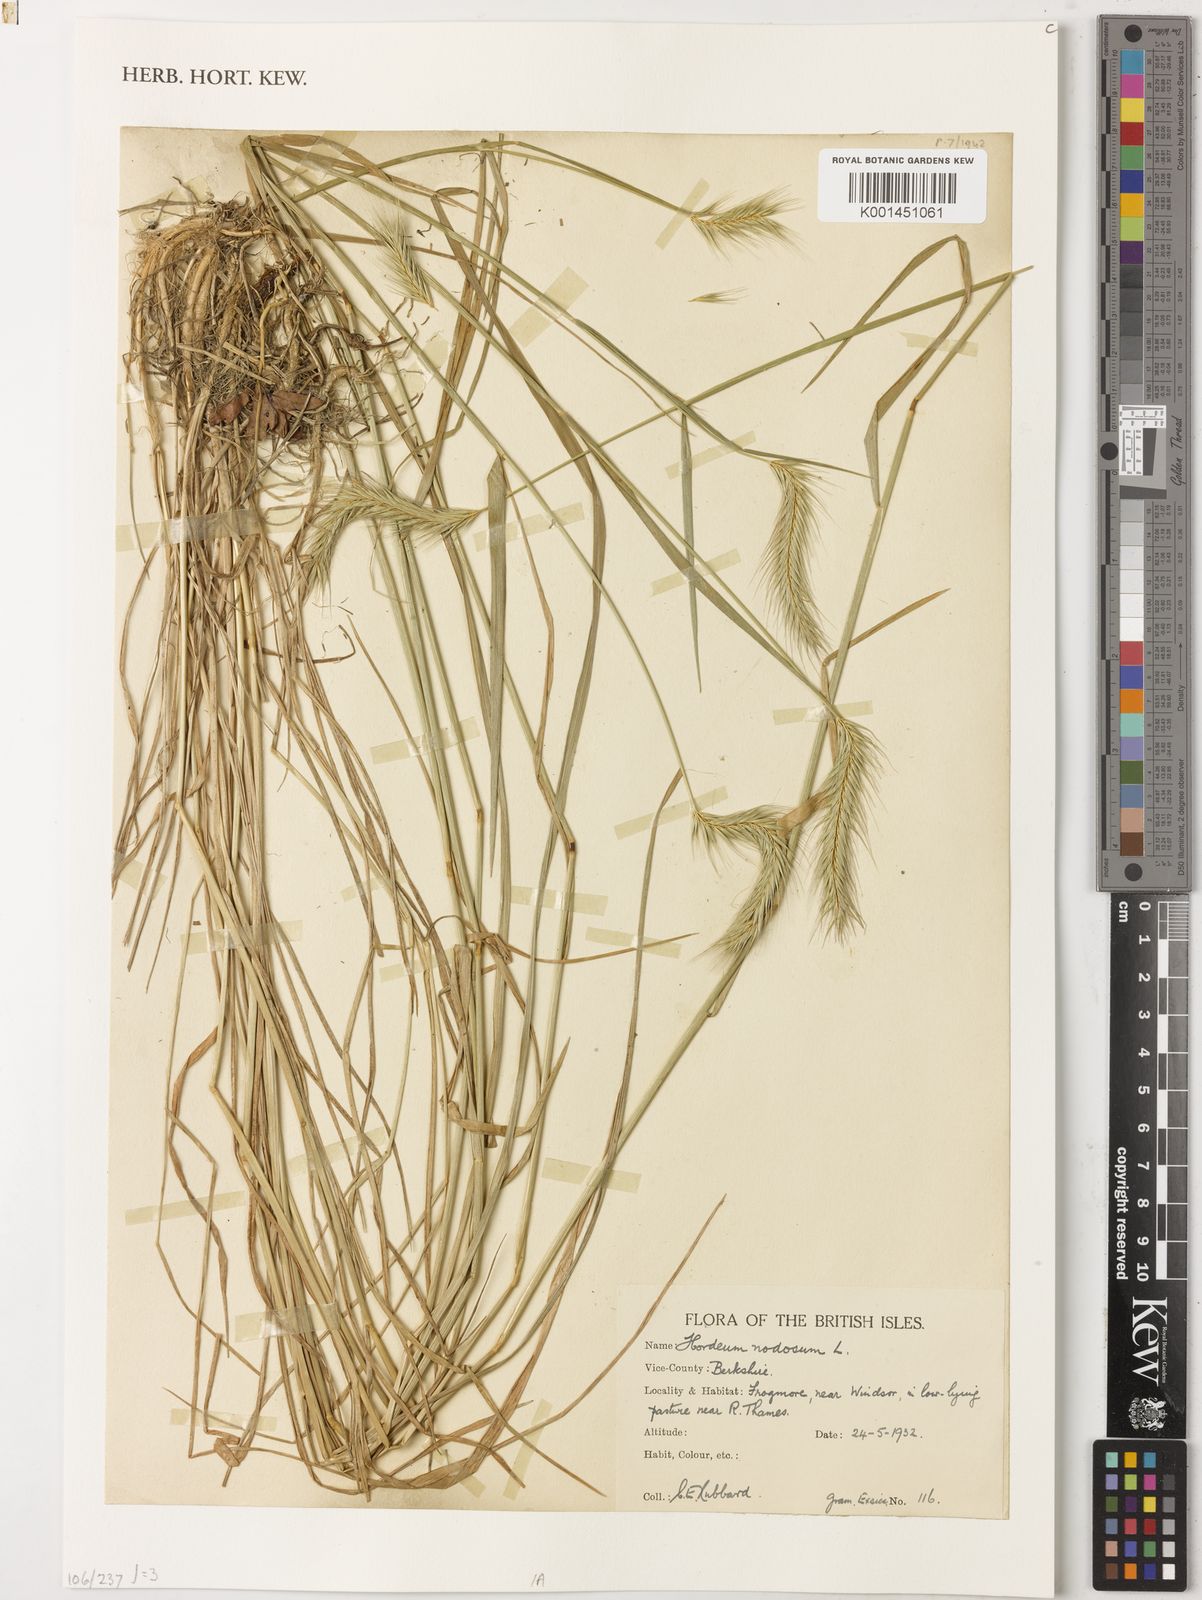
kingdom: Plantae
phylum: Tracheophyta
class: Liliopsida
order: Poales
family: Poaceae
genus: Hordeum
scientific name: Hordeum bulbosum
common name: Bulbous barley
